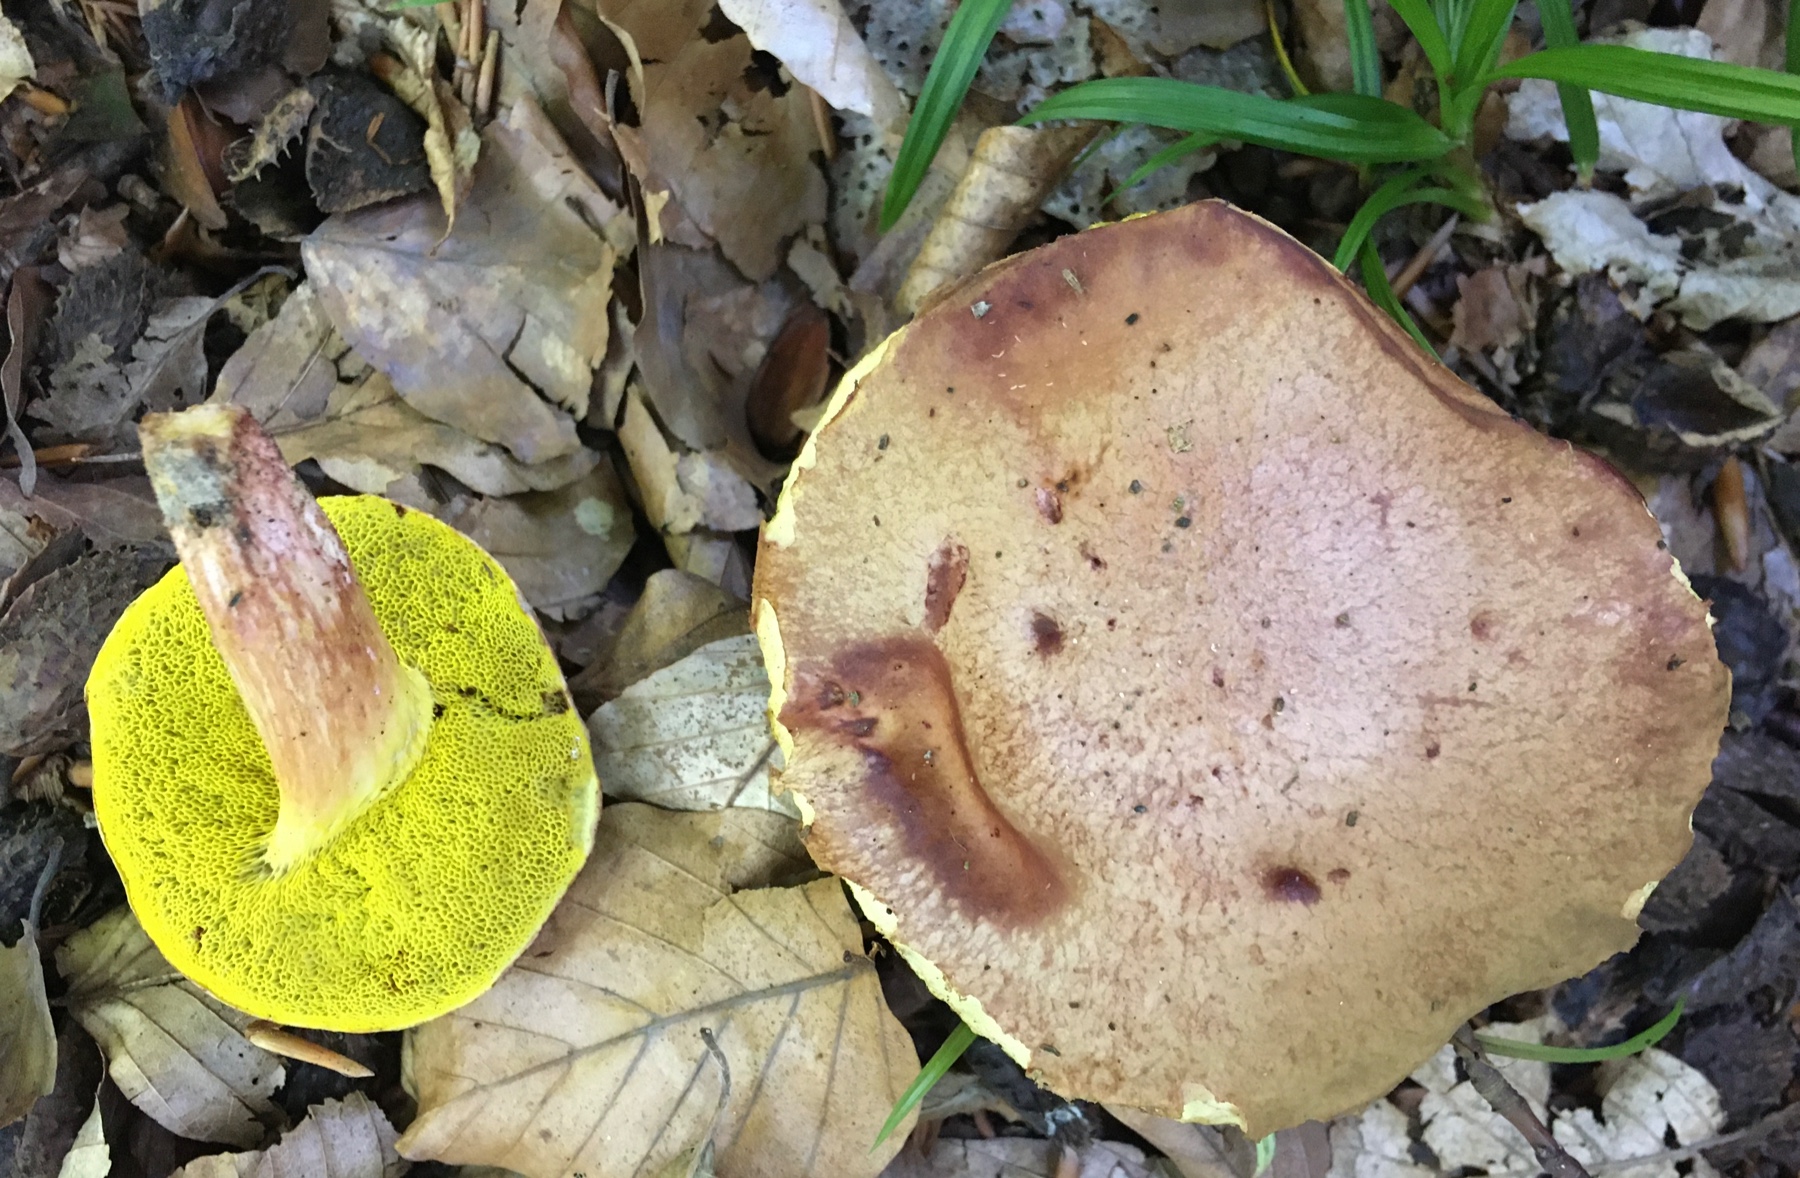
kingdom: Fungi
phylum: Basidiomycota
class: Agaricomycetes
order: Boletales
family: Boletaceae
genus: Aureoboletus
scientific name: Aureoboletus gentilis
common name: guldrørhat
